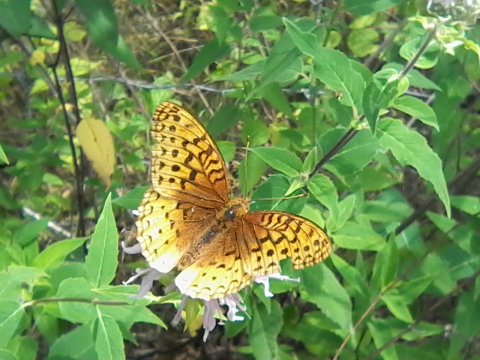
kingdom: Animalia
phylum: Arthropoda
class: Insecta
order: Lepidoptera
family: Nymphalidae
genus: Speyeria
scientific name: Speyeria cybele
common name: Great Spangled Fritillary
